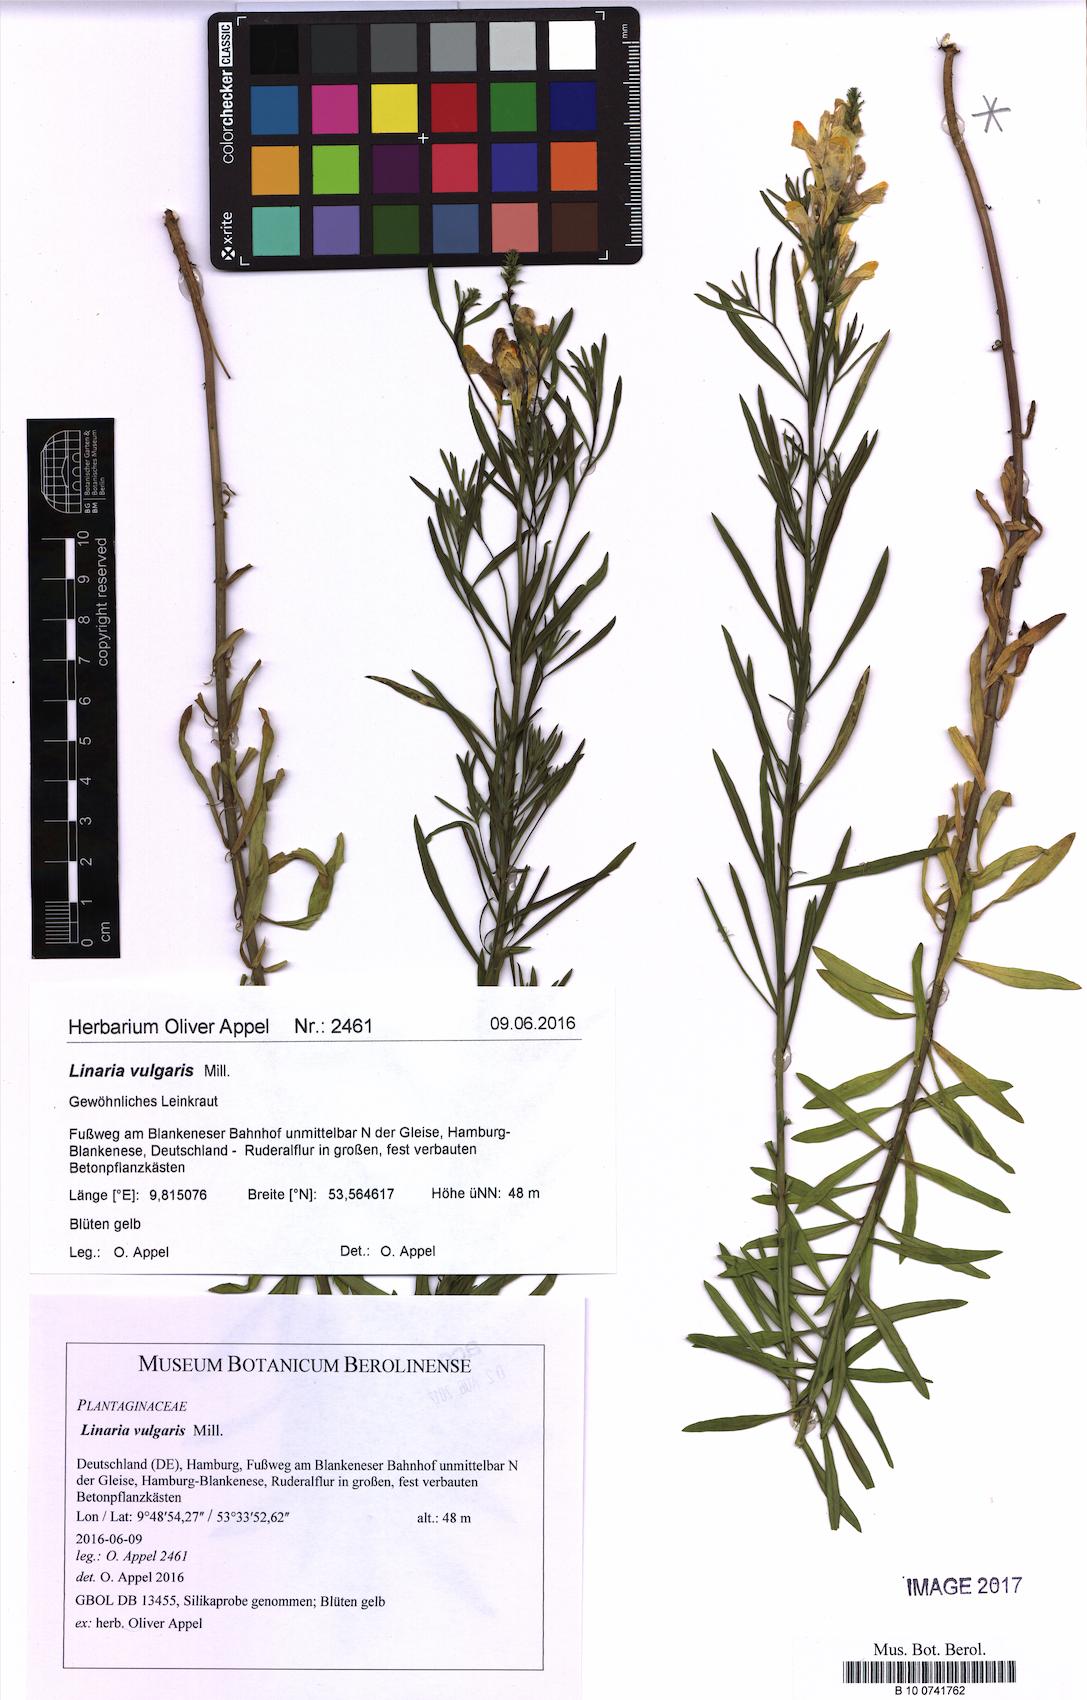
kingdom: Plantae
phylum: Tracheophyta
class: Magnoliopsida
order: Lamiales
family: Plantaginaceae
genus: Linaria
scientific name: Linaria vulgaris
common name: Butter and eggs
